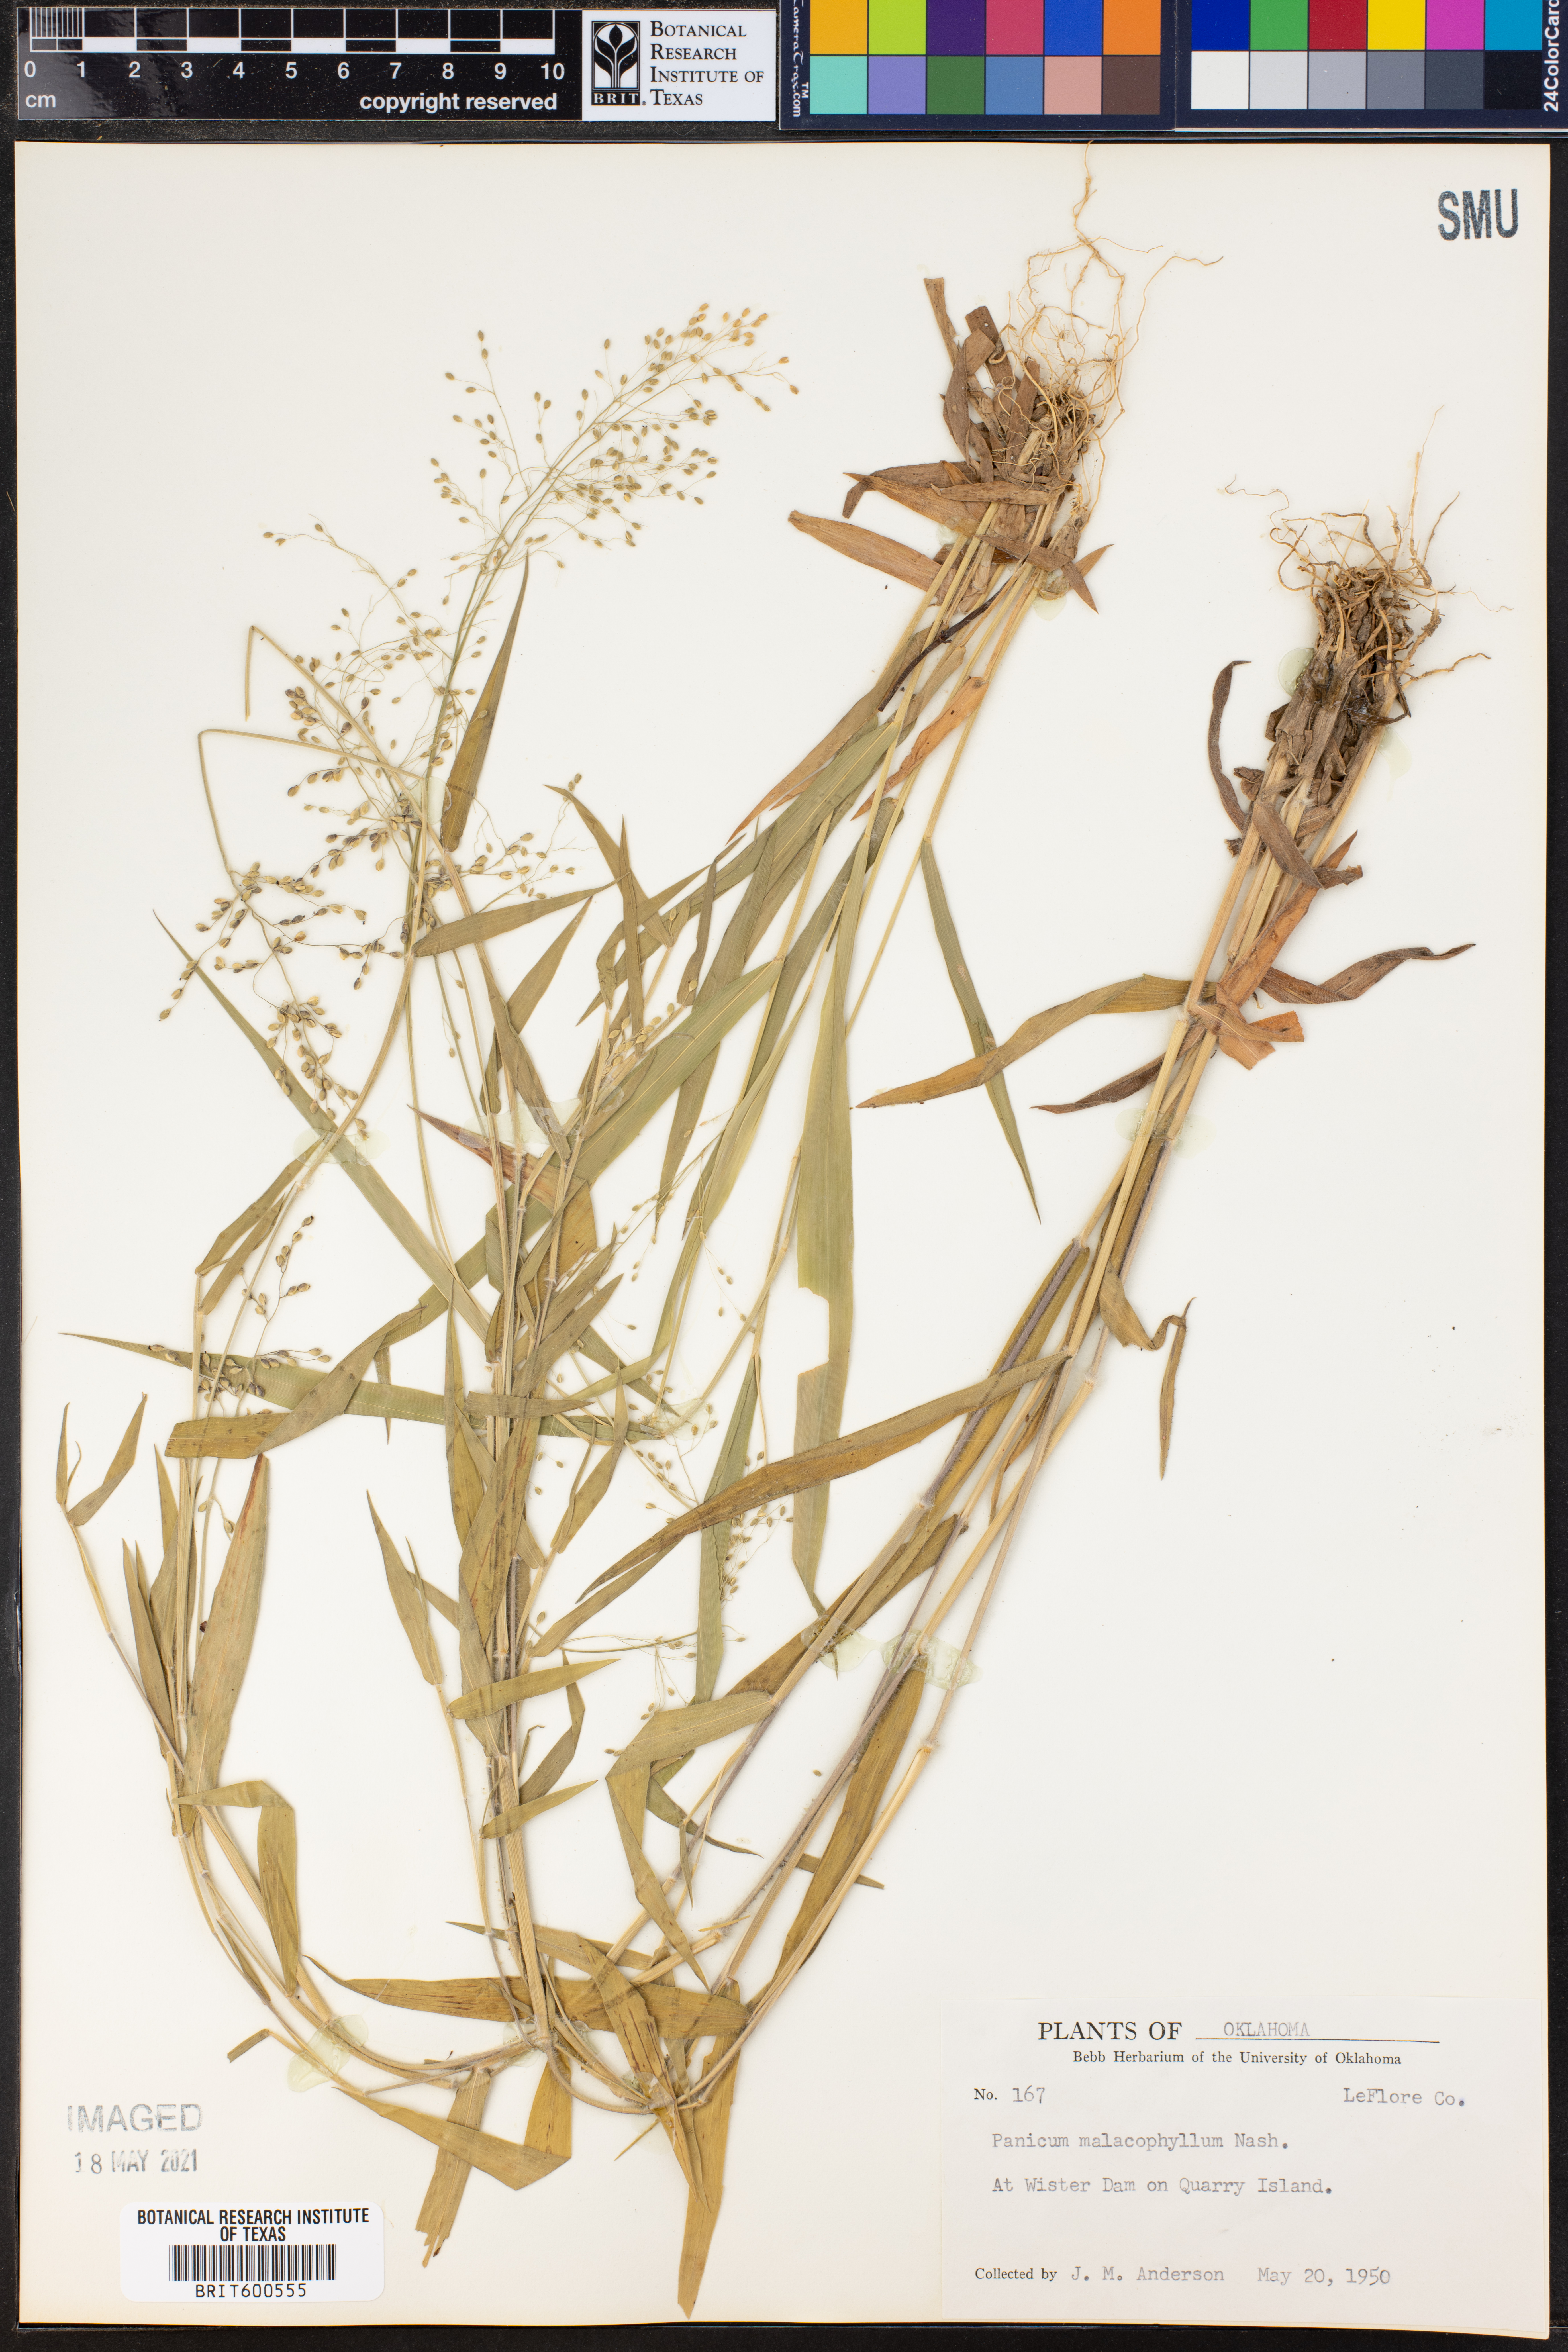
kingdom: Plantae
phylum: Tracheophyta
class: Liliopsida
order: Poales
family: Poaceae
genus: Dichanthelium
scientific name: Dichanthelium malacophyllum
